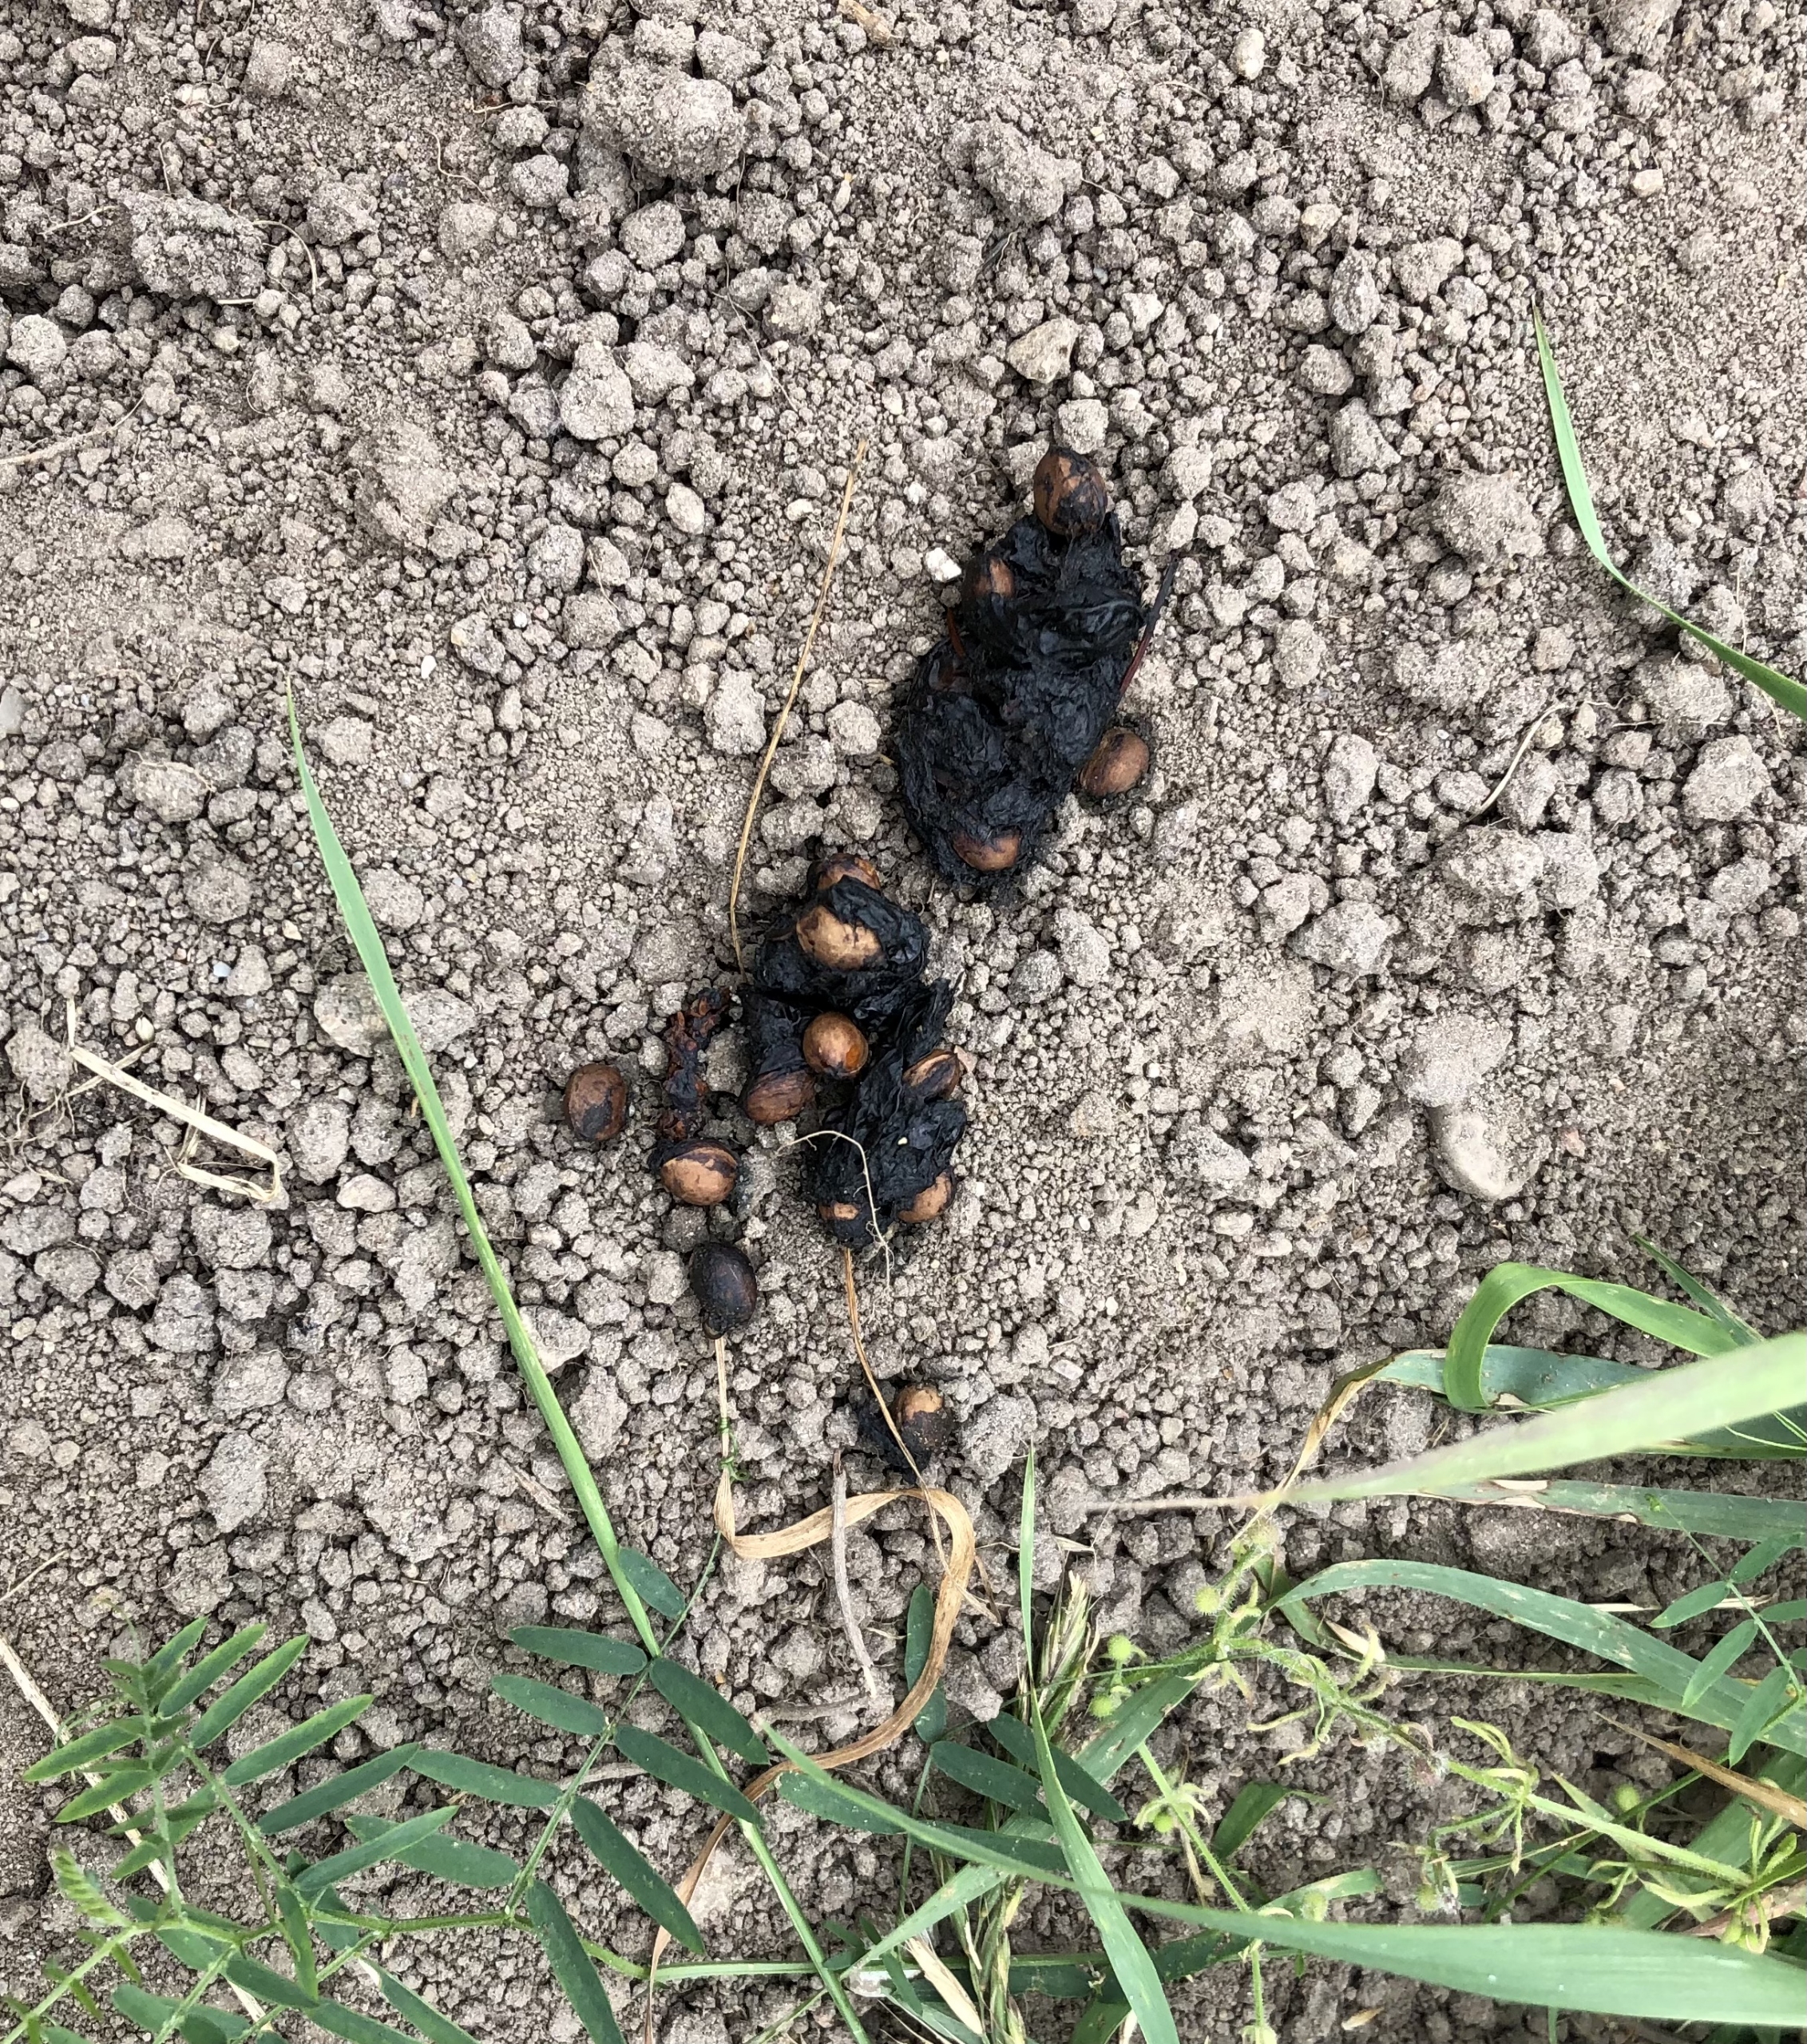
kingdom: Animalia
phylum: Chordata
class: Mammalia
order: Carnivora
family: Canidae
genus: Vulpes
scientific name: Vulpes vulpes
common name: Ræv
